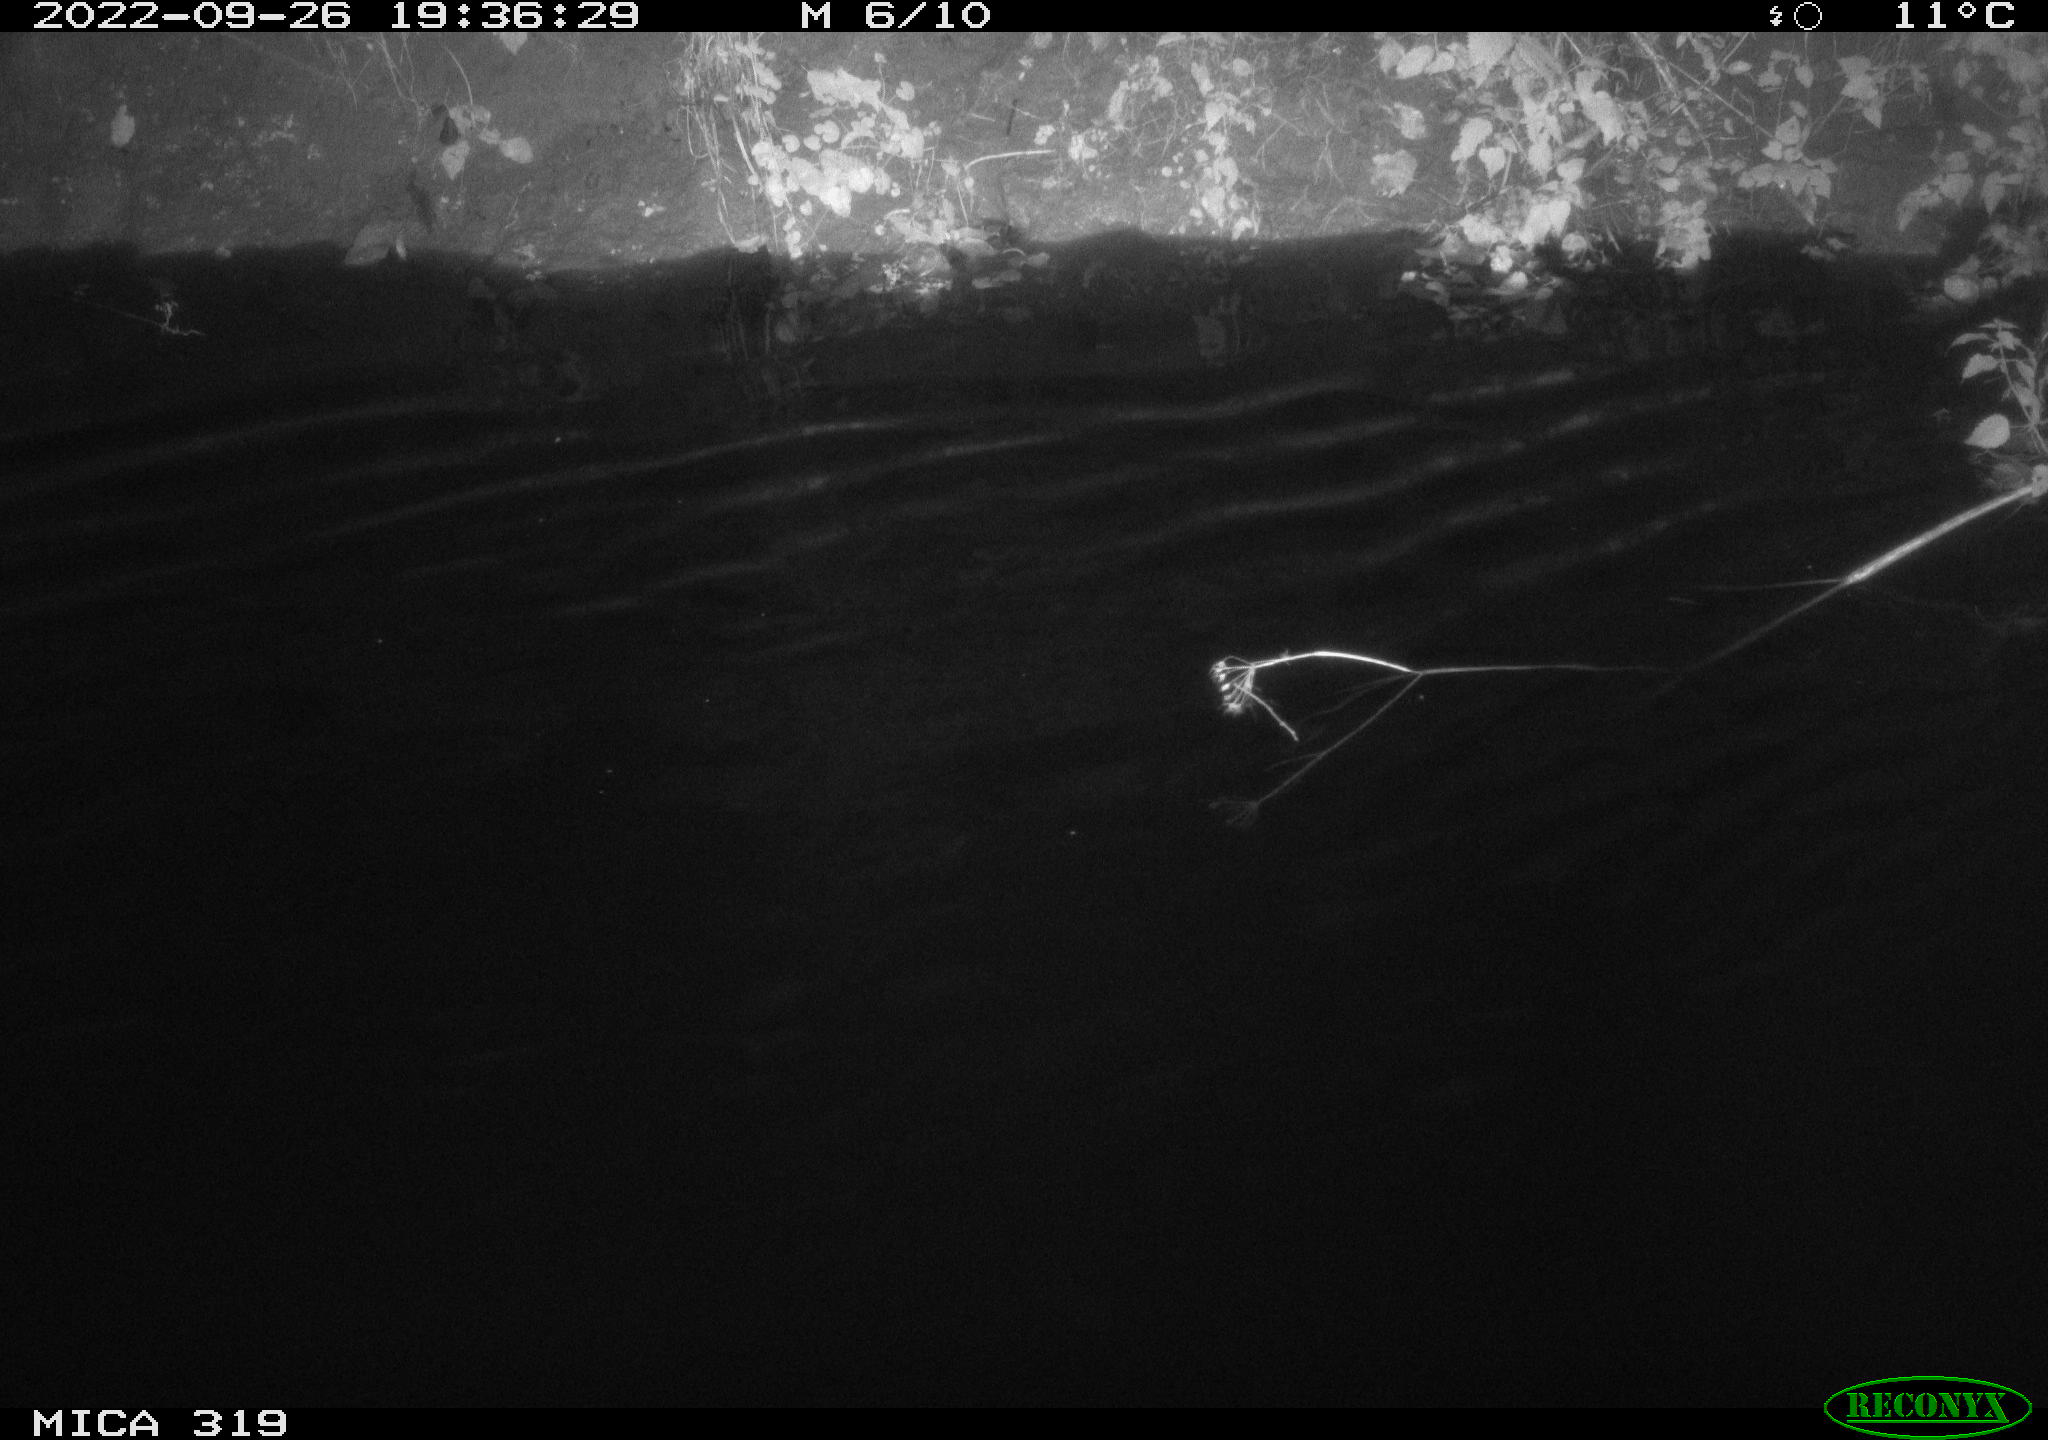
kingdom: Animalia
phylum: Chordata
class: Aves
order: Anseriformes
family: Anatidae
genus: Anas
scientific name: Anas
